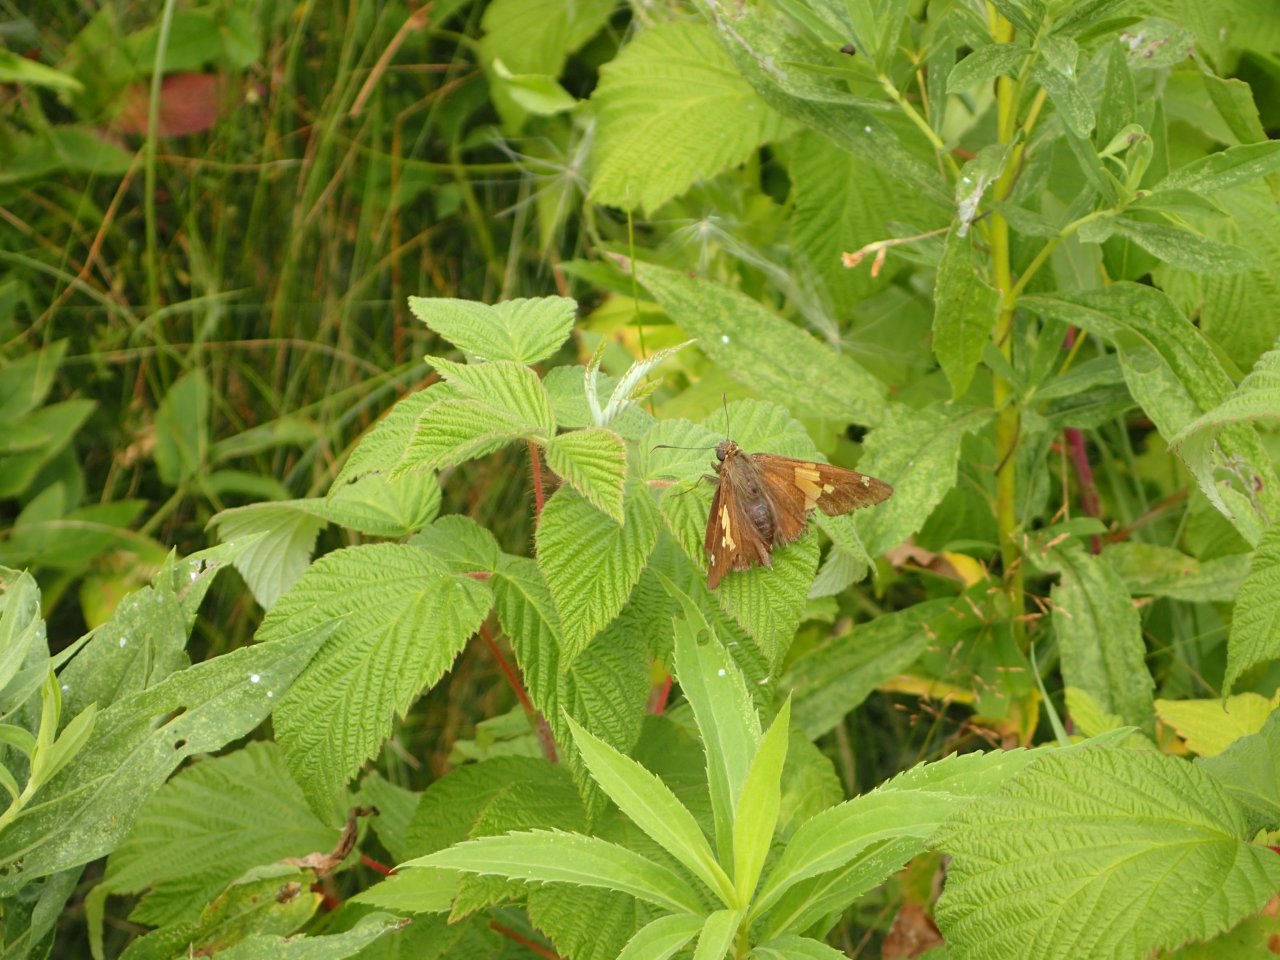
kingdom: Animalia
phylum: Arthropoda
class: Insecta
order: Lepidoptera
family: Hesperiidae
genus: Epargyreus
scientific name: Epargyreus clarus
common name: Silver-spotted Skipper
